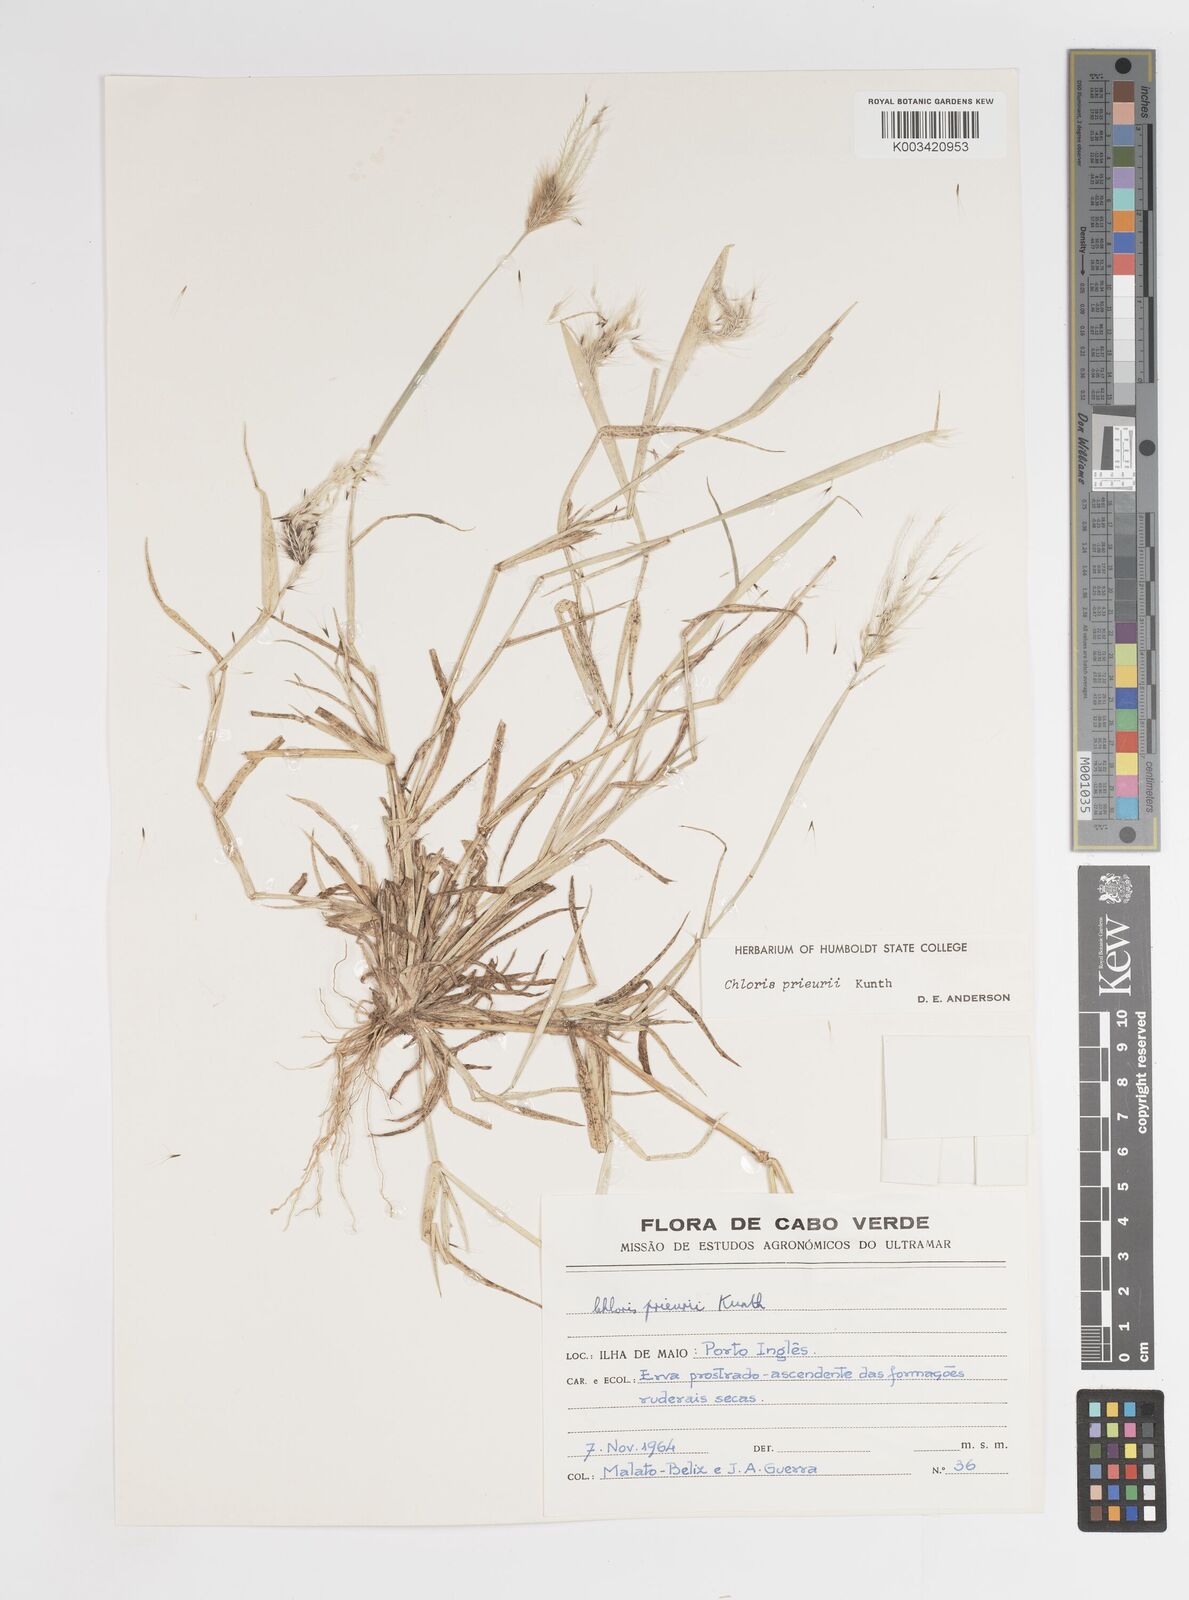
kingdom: Plantae
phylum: Tracheophyta
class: Liliopsida
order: Poales
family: Poaceae
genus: Enteropogon
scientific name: Enteropogon prieurii
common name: Prieur's umbrellagrass
